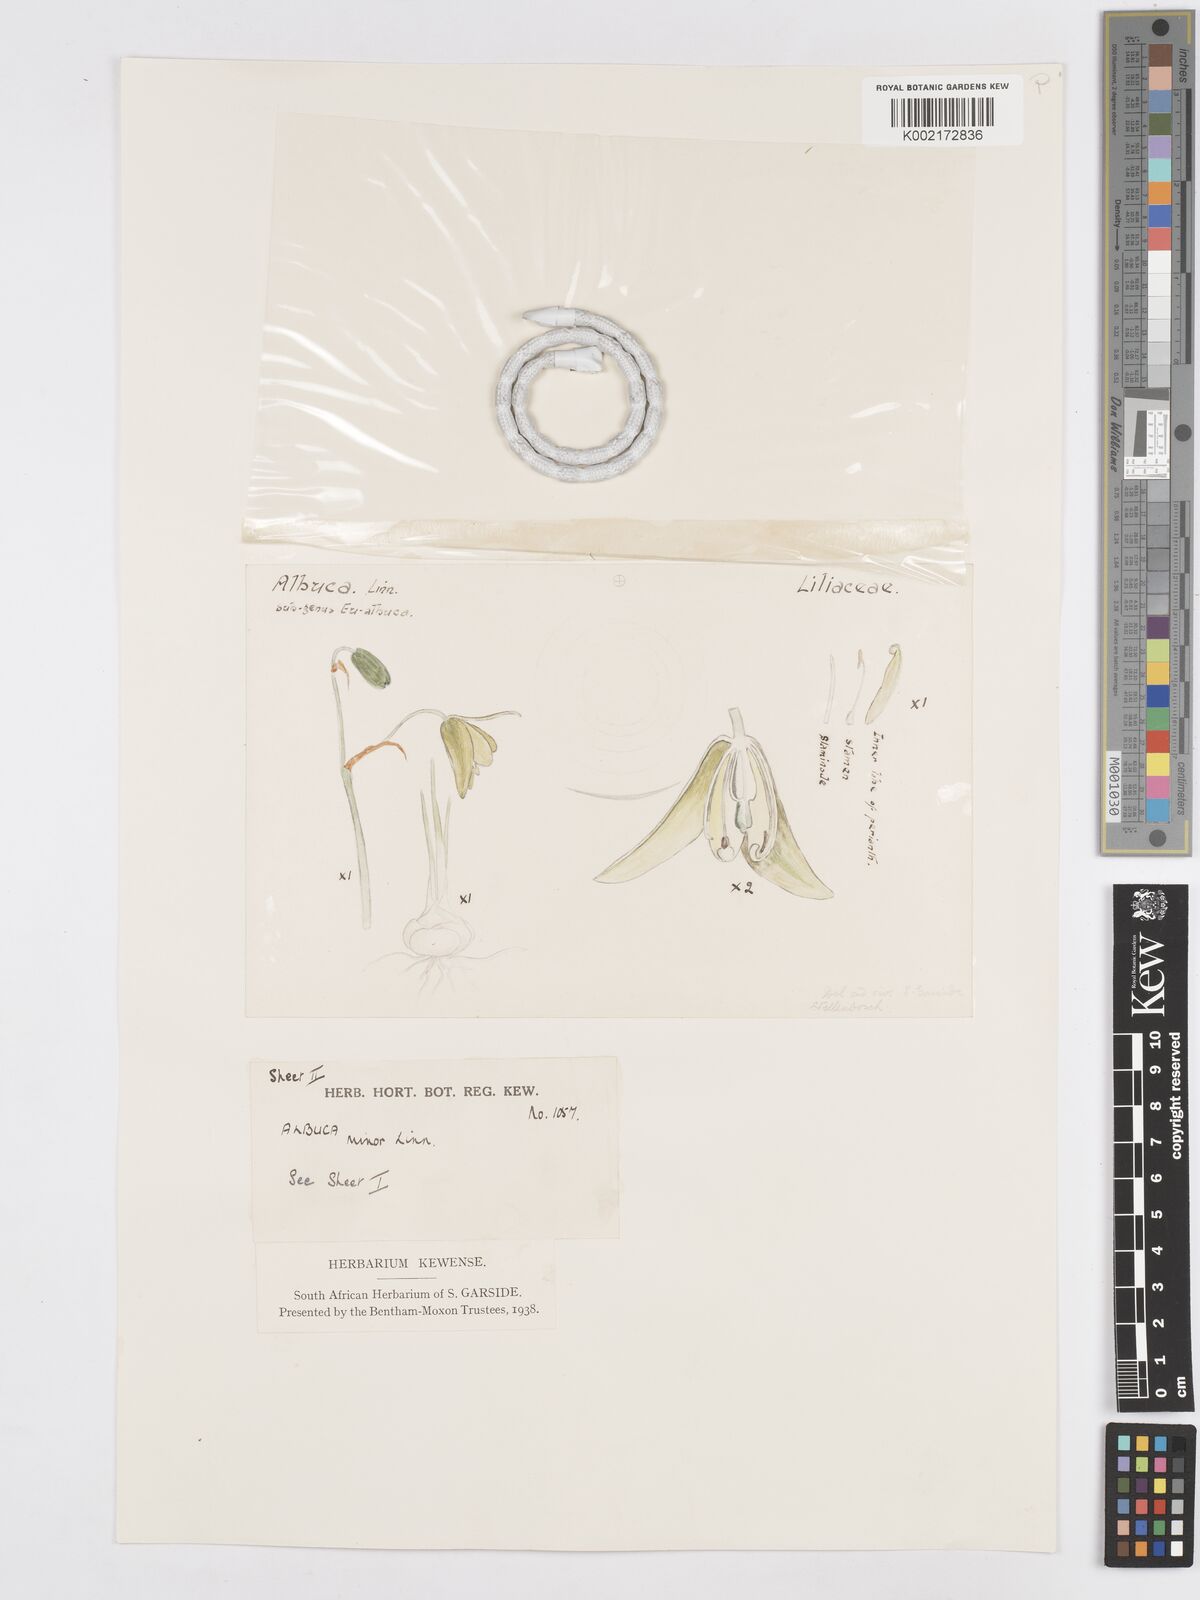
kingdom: Plantae
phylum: Tracheophyta
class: Liliopsida
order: Asparagales
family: Asparagaceae
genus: Albuca
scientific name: Albuca canadensis
